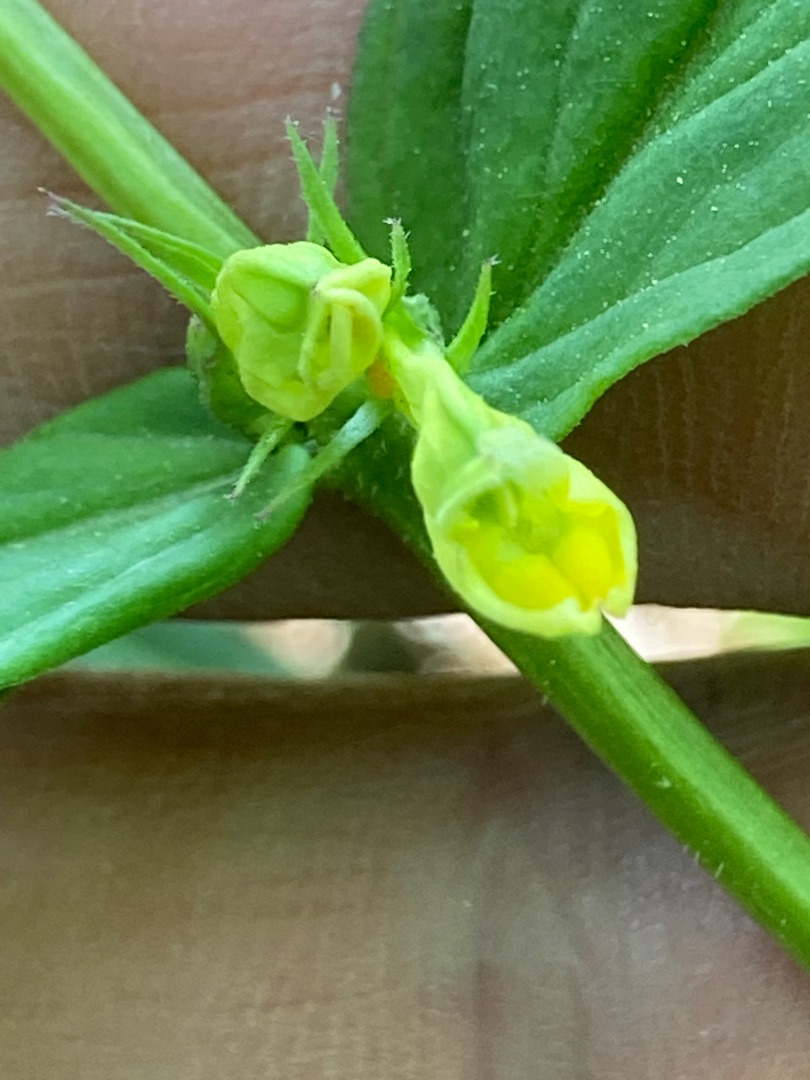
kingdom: Plantae
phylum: Tracheophyta
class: Magnoliopsida
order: Lamiales
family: Orobanchaceae
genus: Melampyrum
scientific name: Melampyrum pratense
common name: Almindelig kohvede
